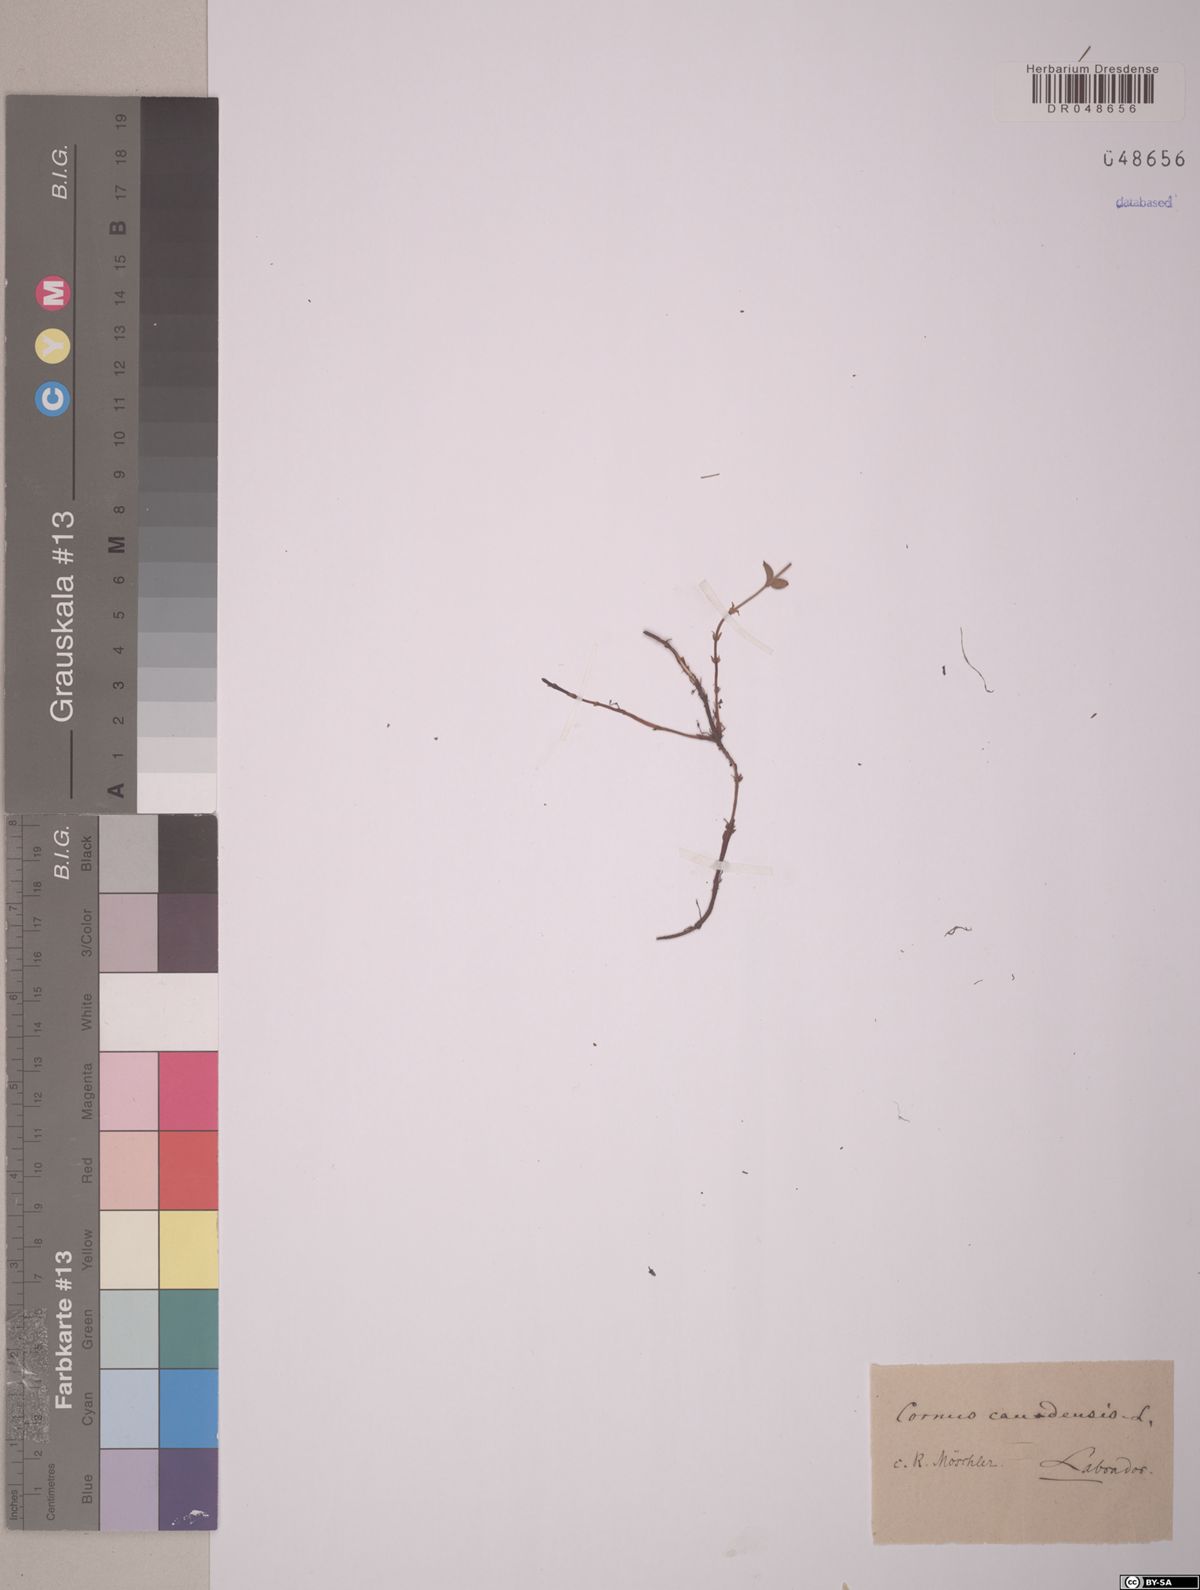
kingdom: Plantae
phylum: Tracheophyta
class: Magnoliopsida
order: Cornales
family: Cornaceae
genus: Cornus
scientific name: Cornus canadensis
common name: Creeping dogwood
